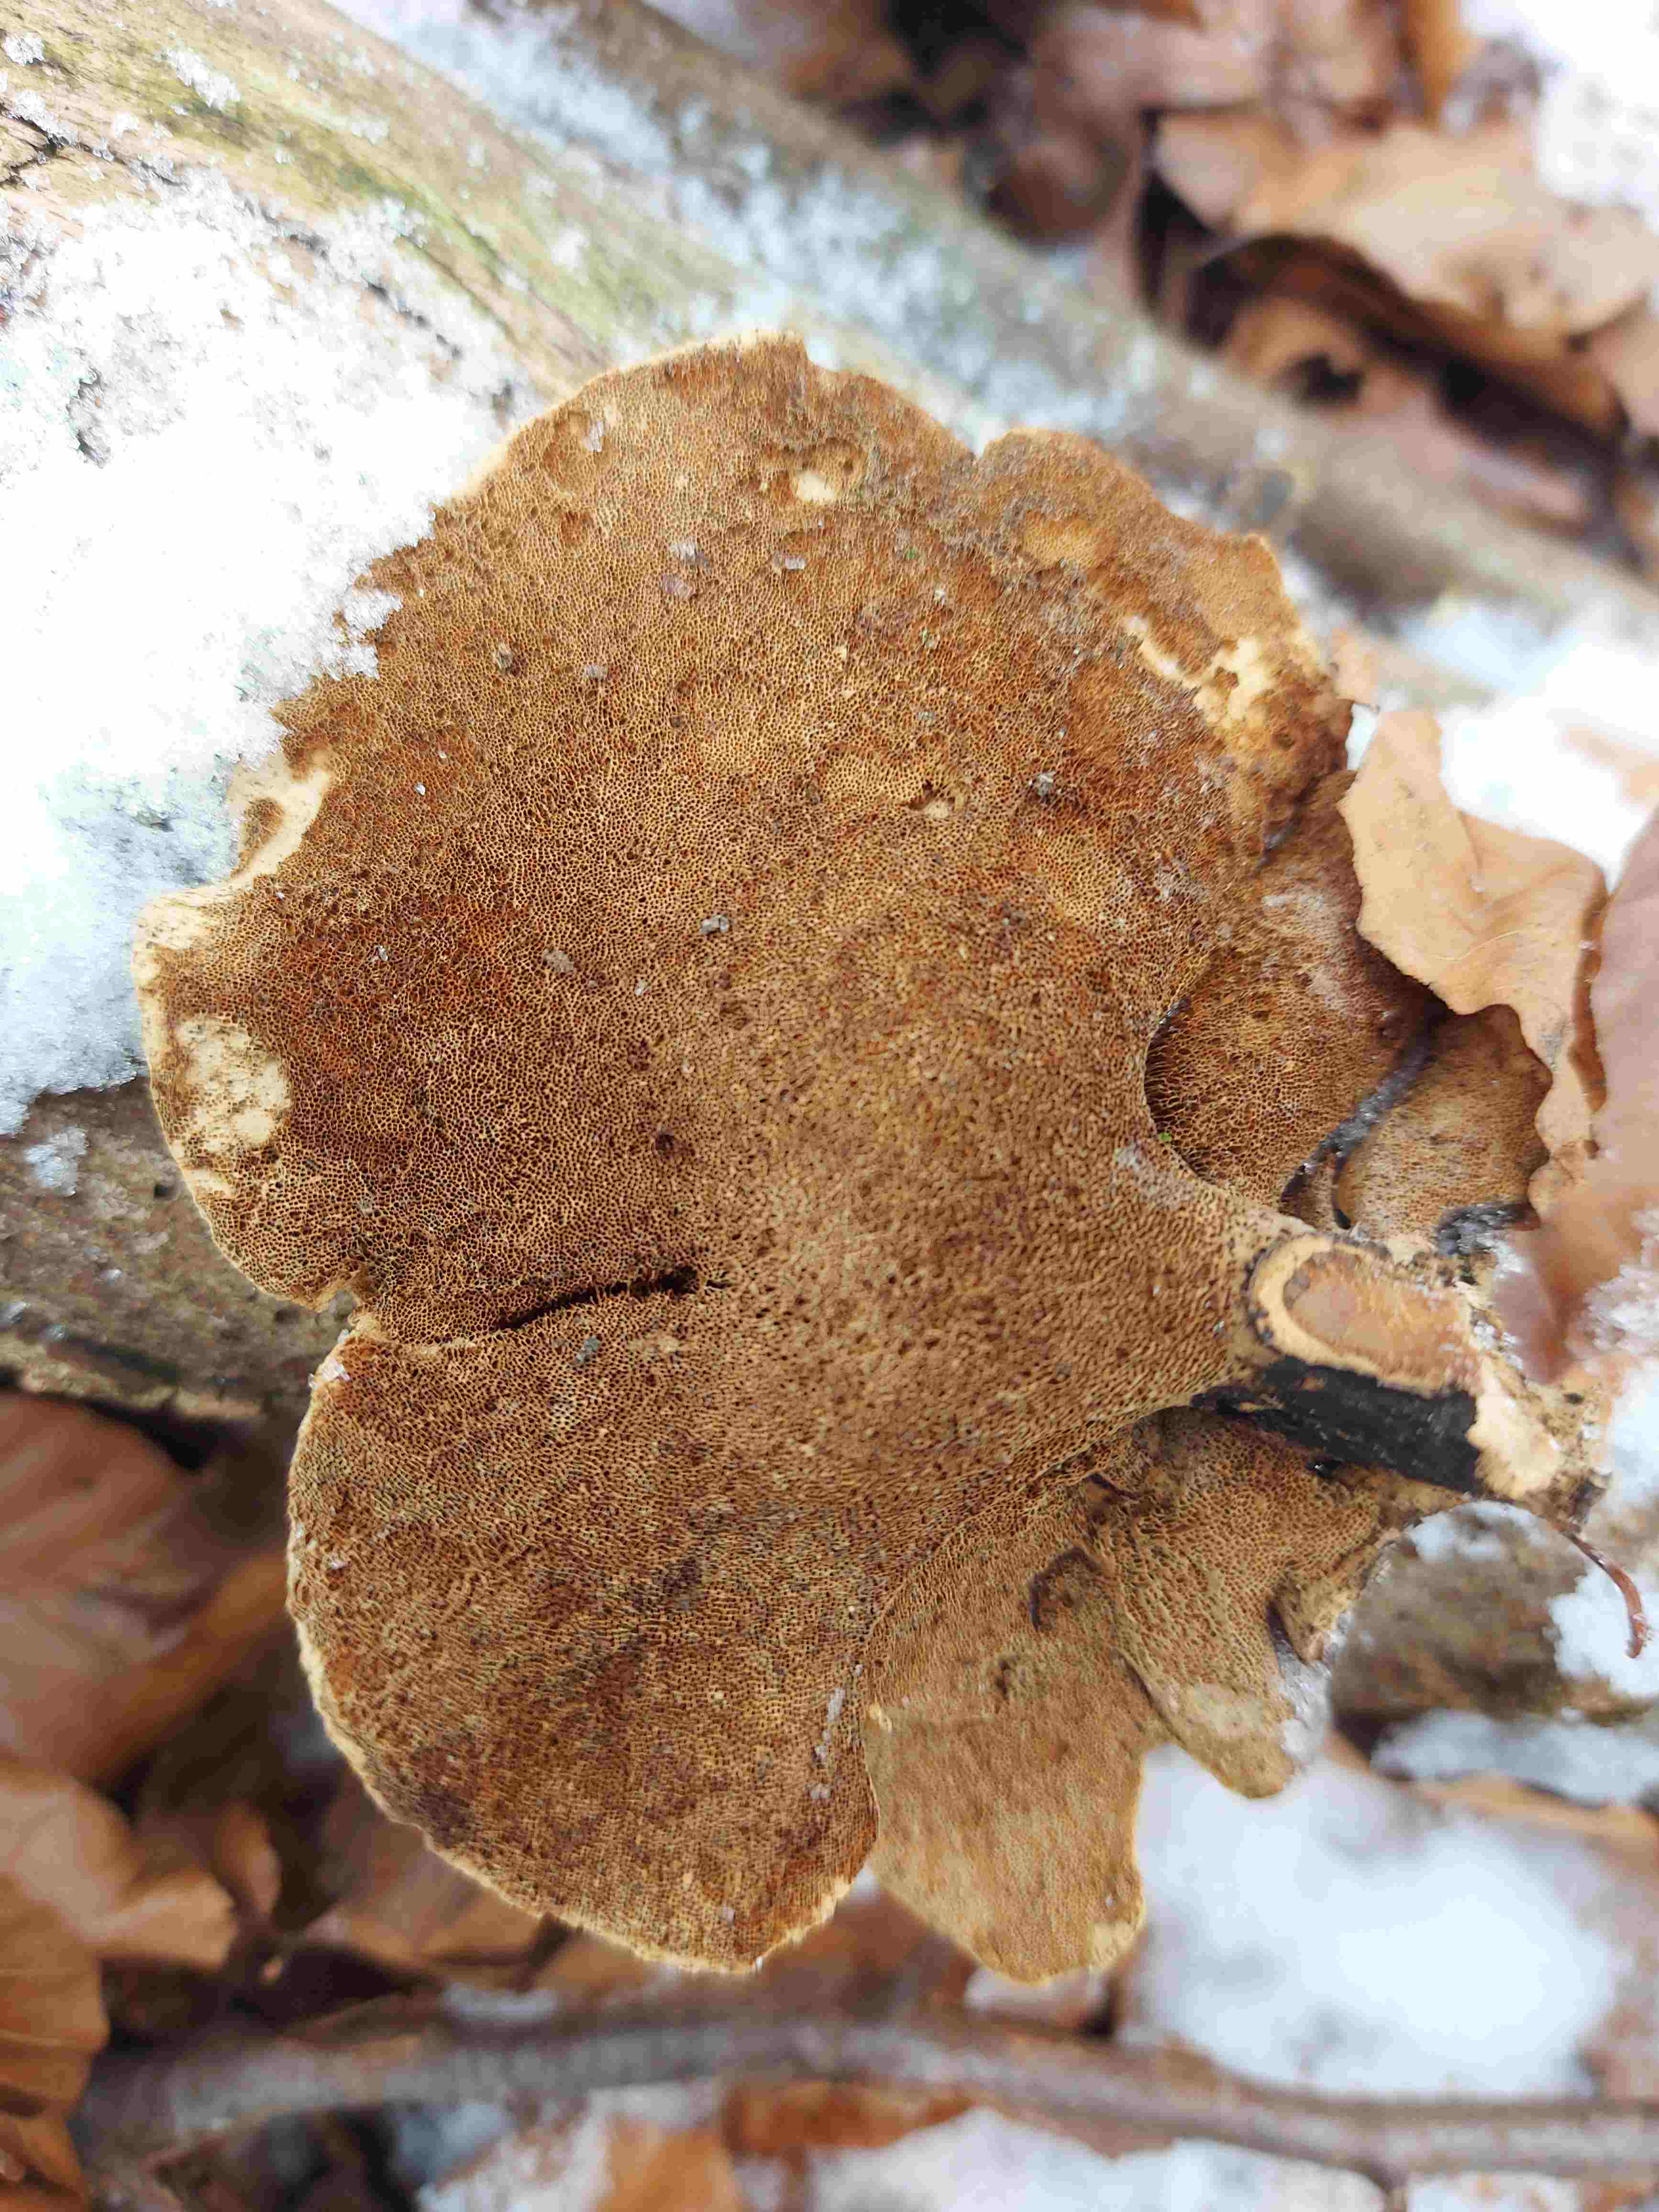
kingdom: Fungi
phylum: Basidiomycota
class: Agaricomycetes
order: Polyporales
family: Polyporaceae
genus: Lentinus
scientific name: Lentinus brumalis
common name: vinter-stilkporesvamp
